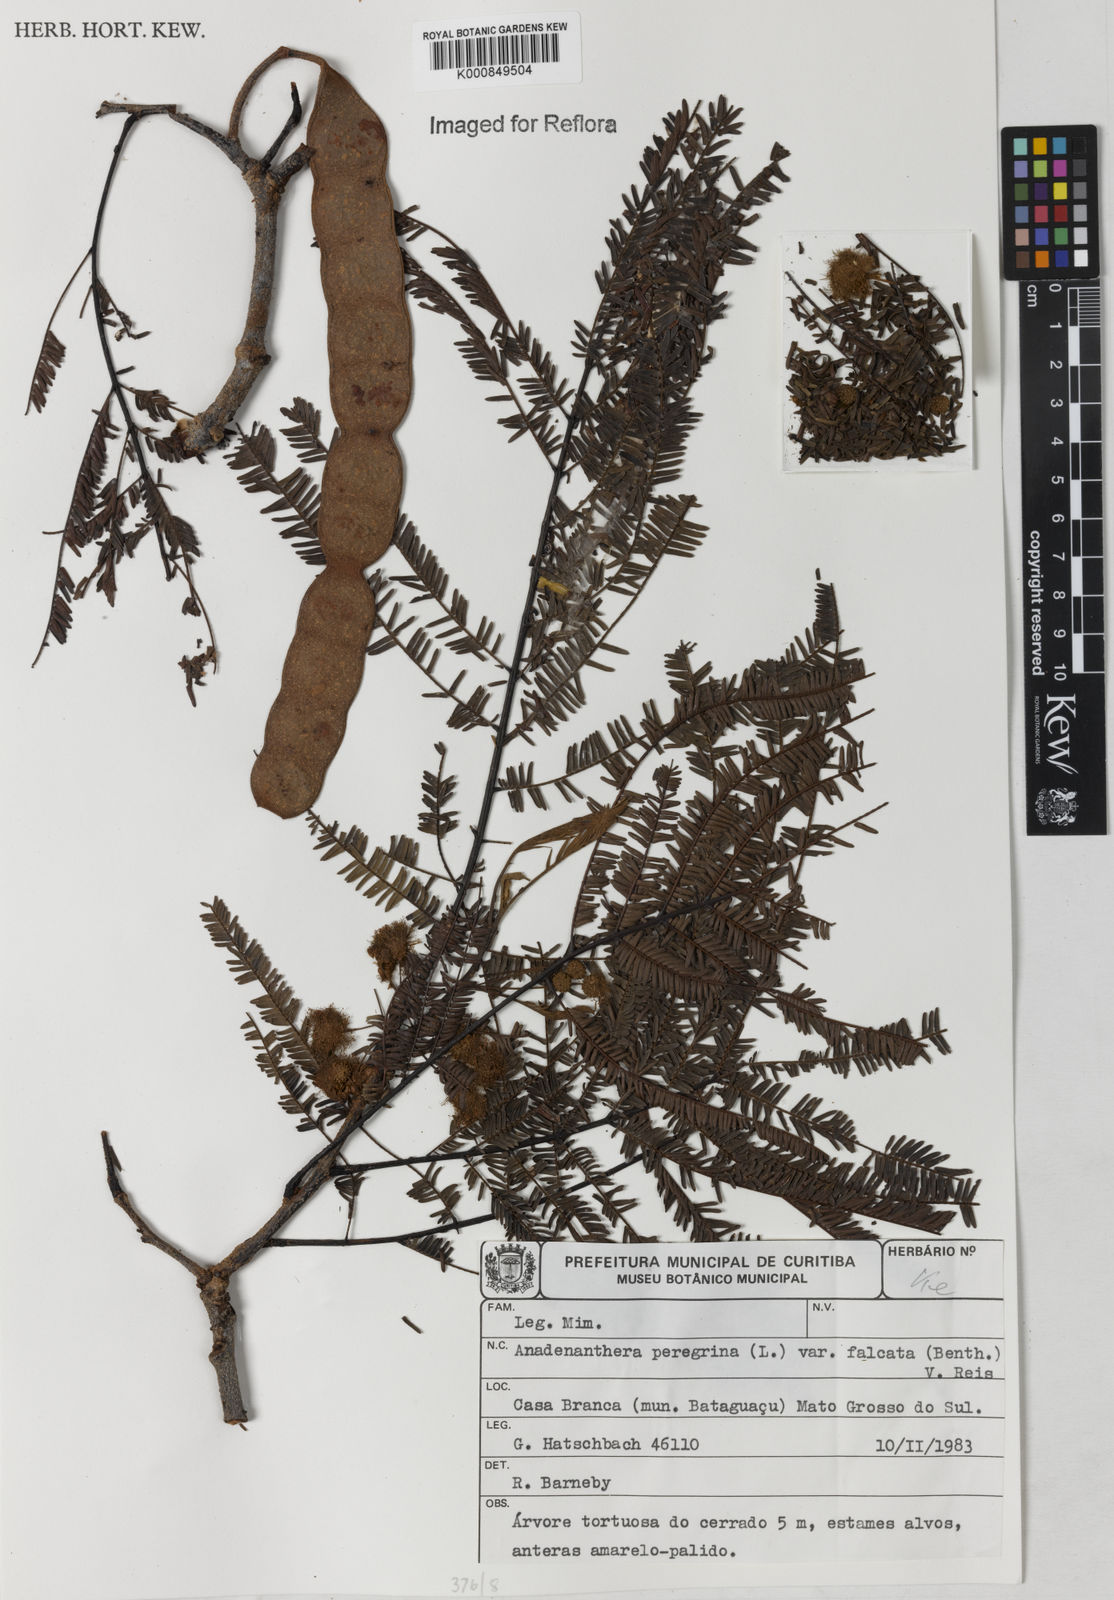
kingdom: Plantae
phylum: Tracheophyta
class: Magnoliopsida
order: Fabales
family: Fabaceae
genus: Anadenanthera
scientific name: Anadenanthera peregrina
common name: Cohoba
